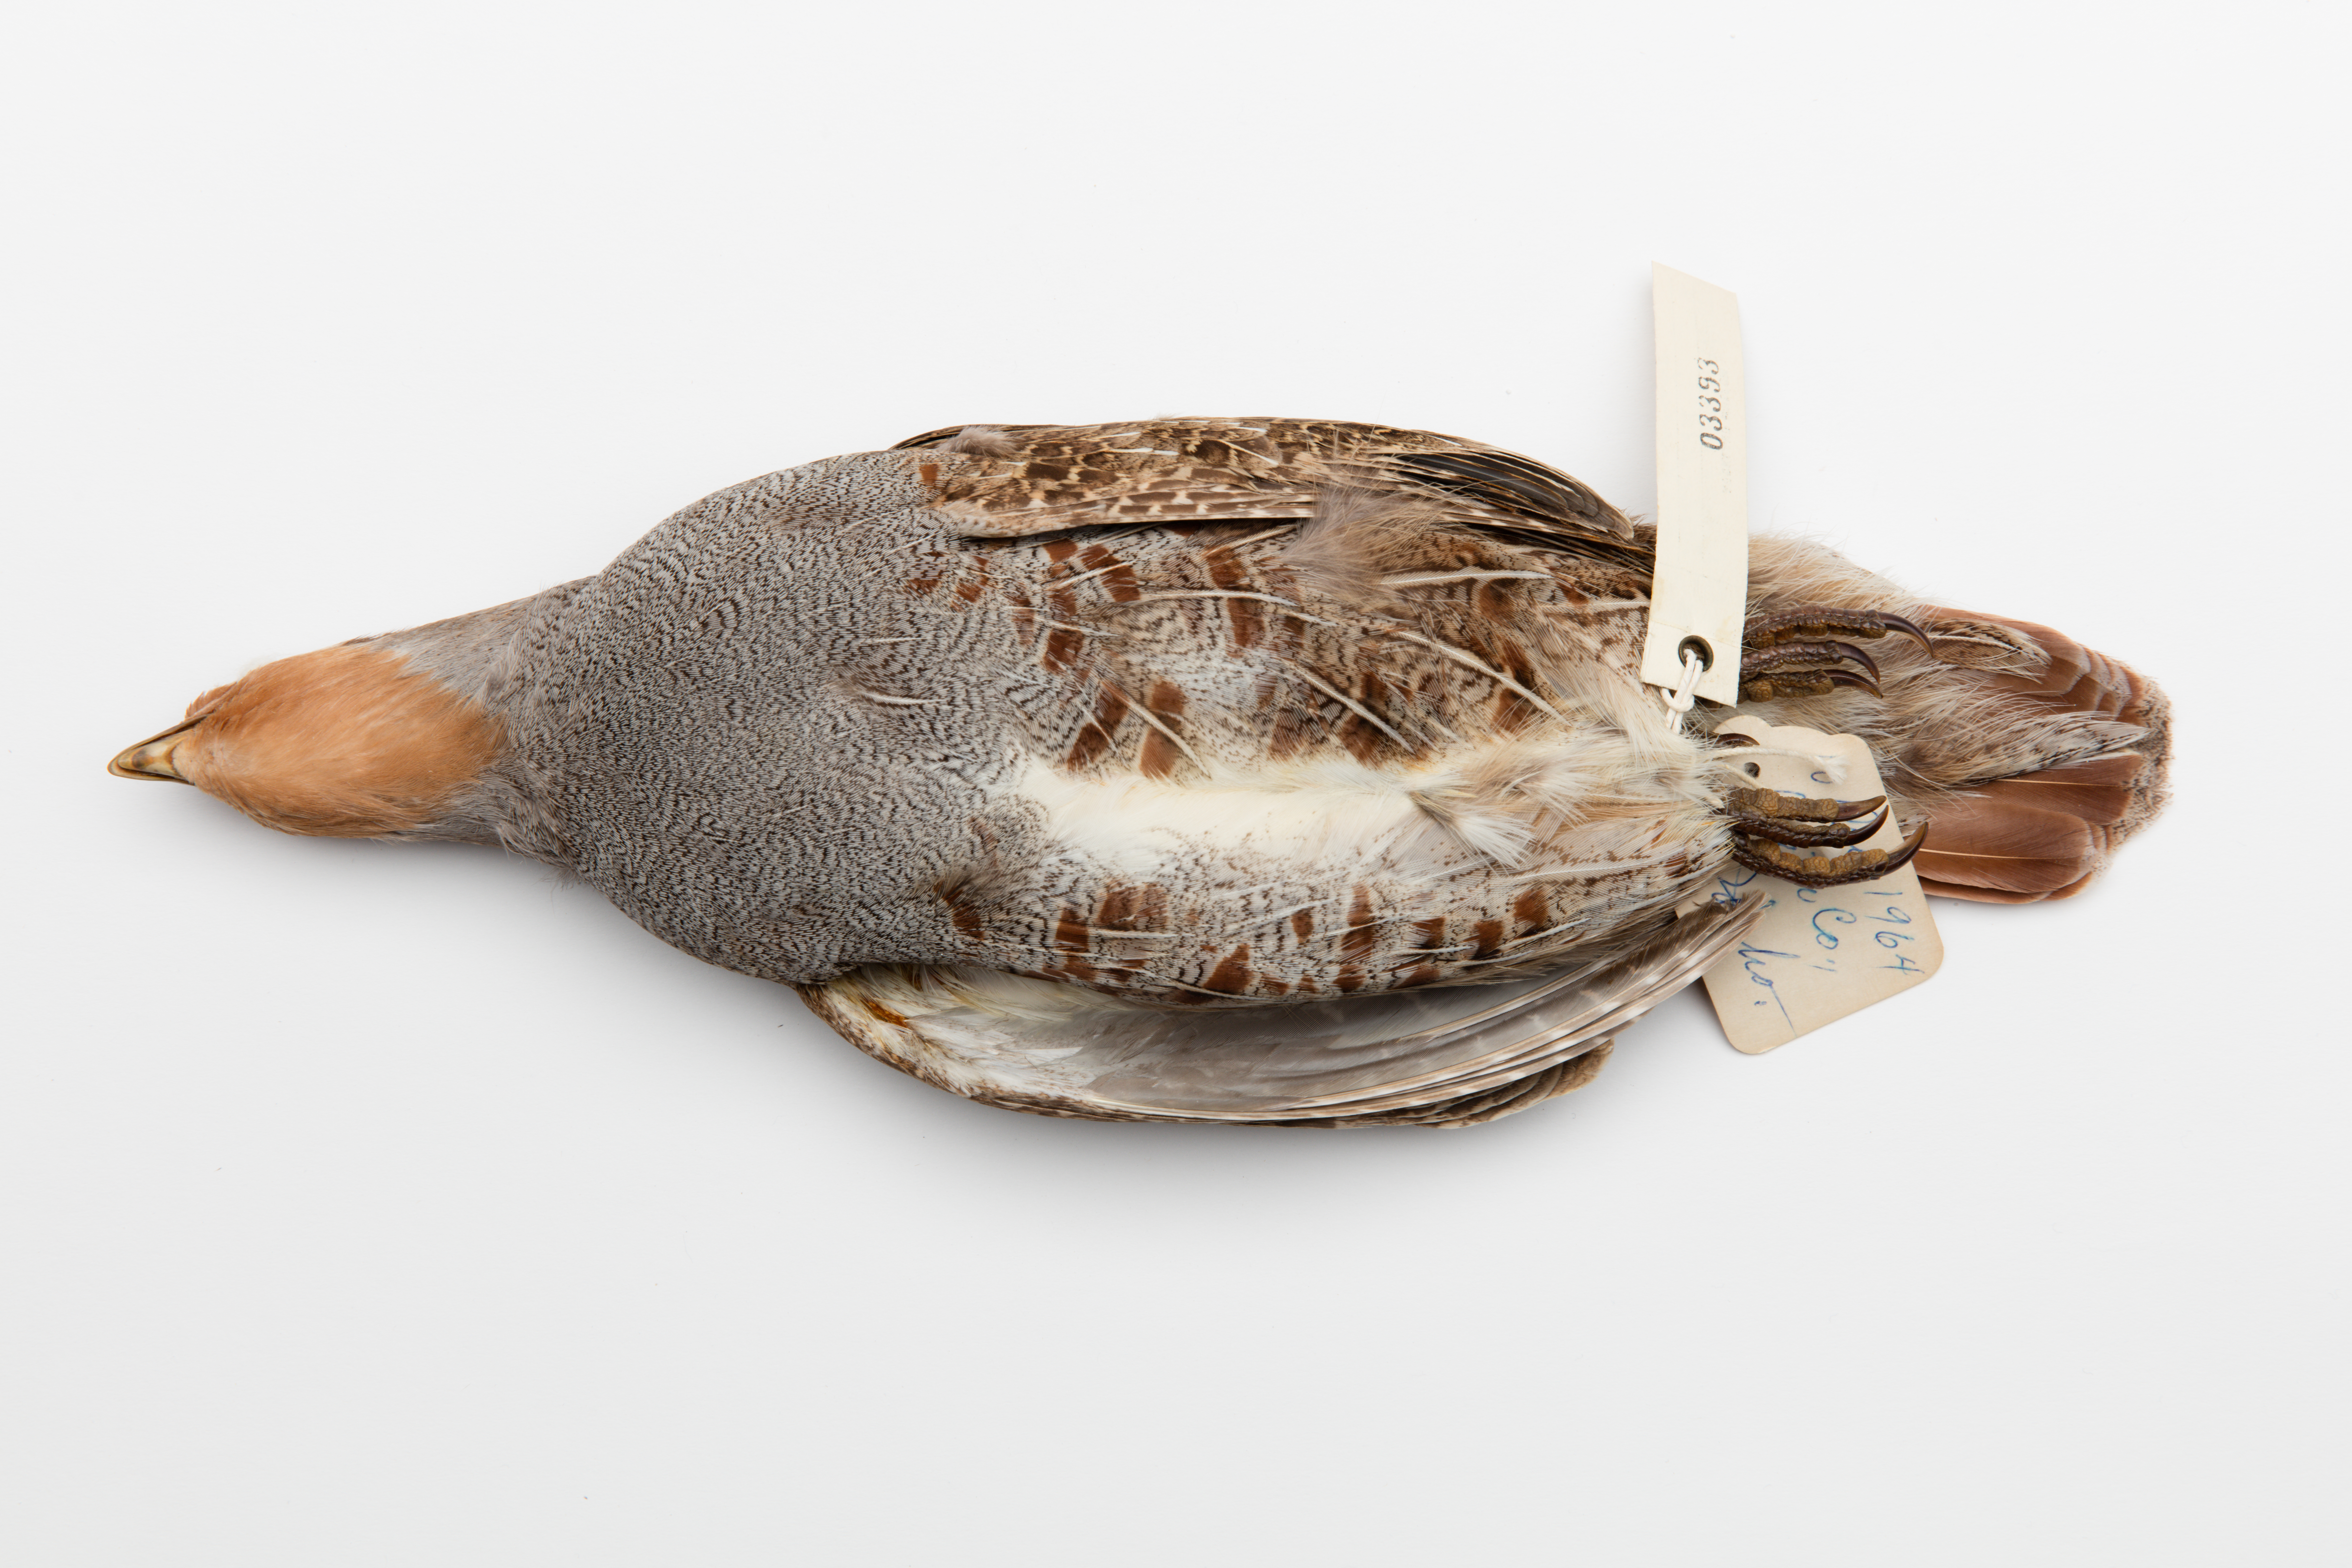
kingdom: Animalia
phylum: Chordata
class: Aves
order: Galliformes
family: Phasianidae
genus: Perdix
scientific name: Perdix perdix
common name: Grey partridge
